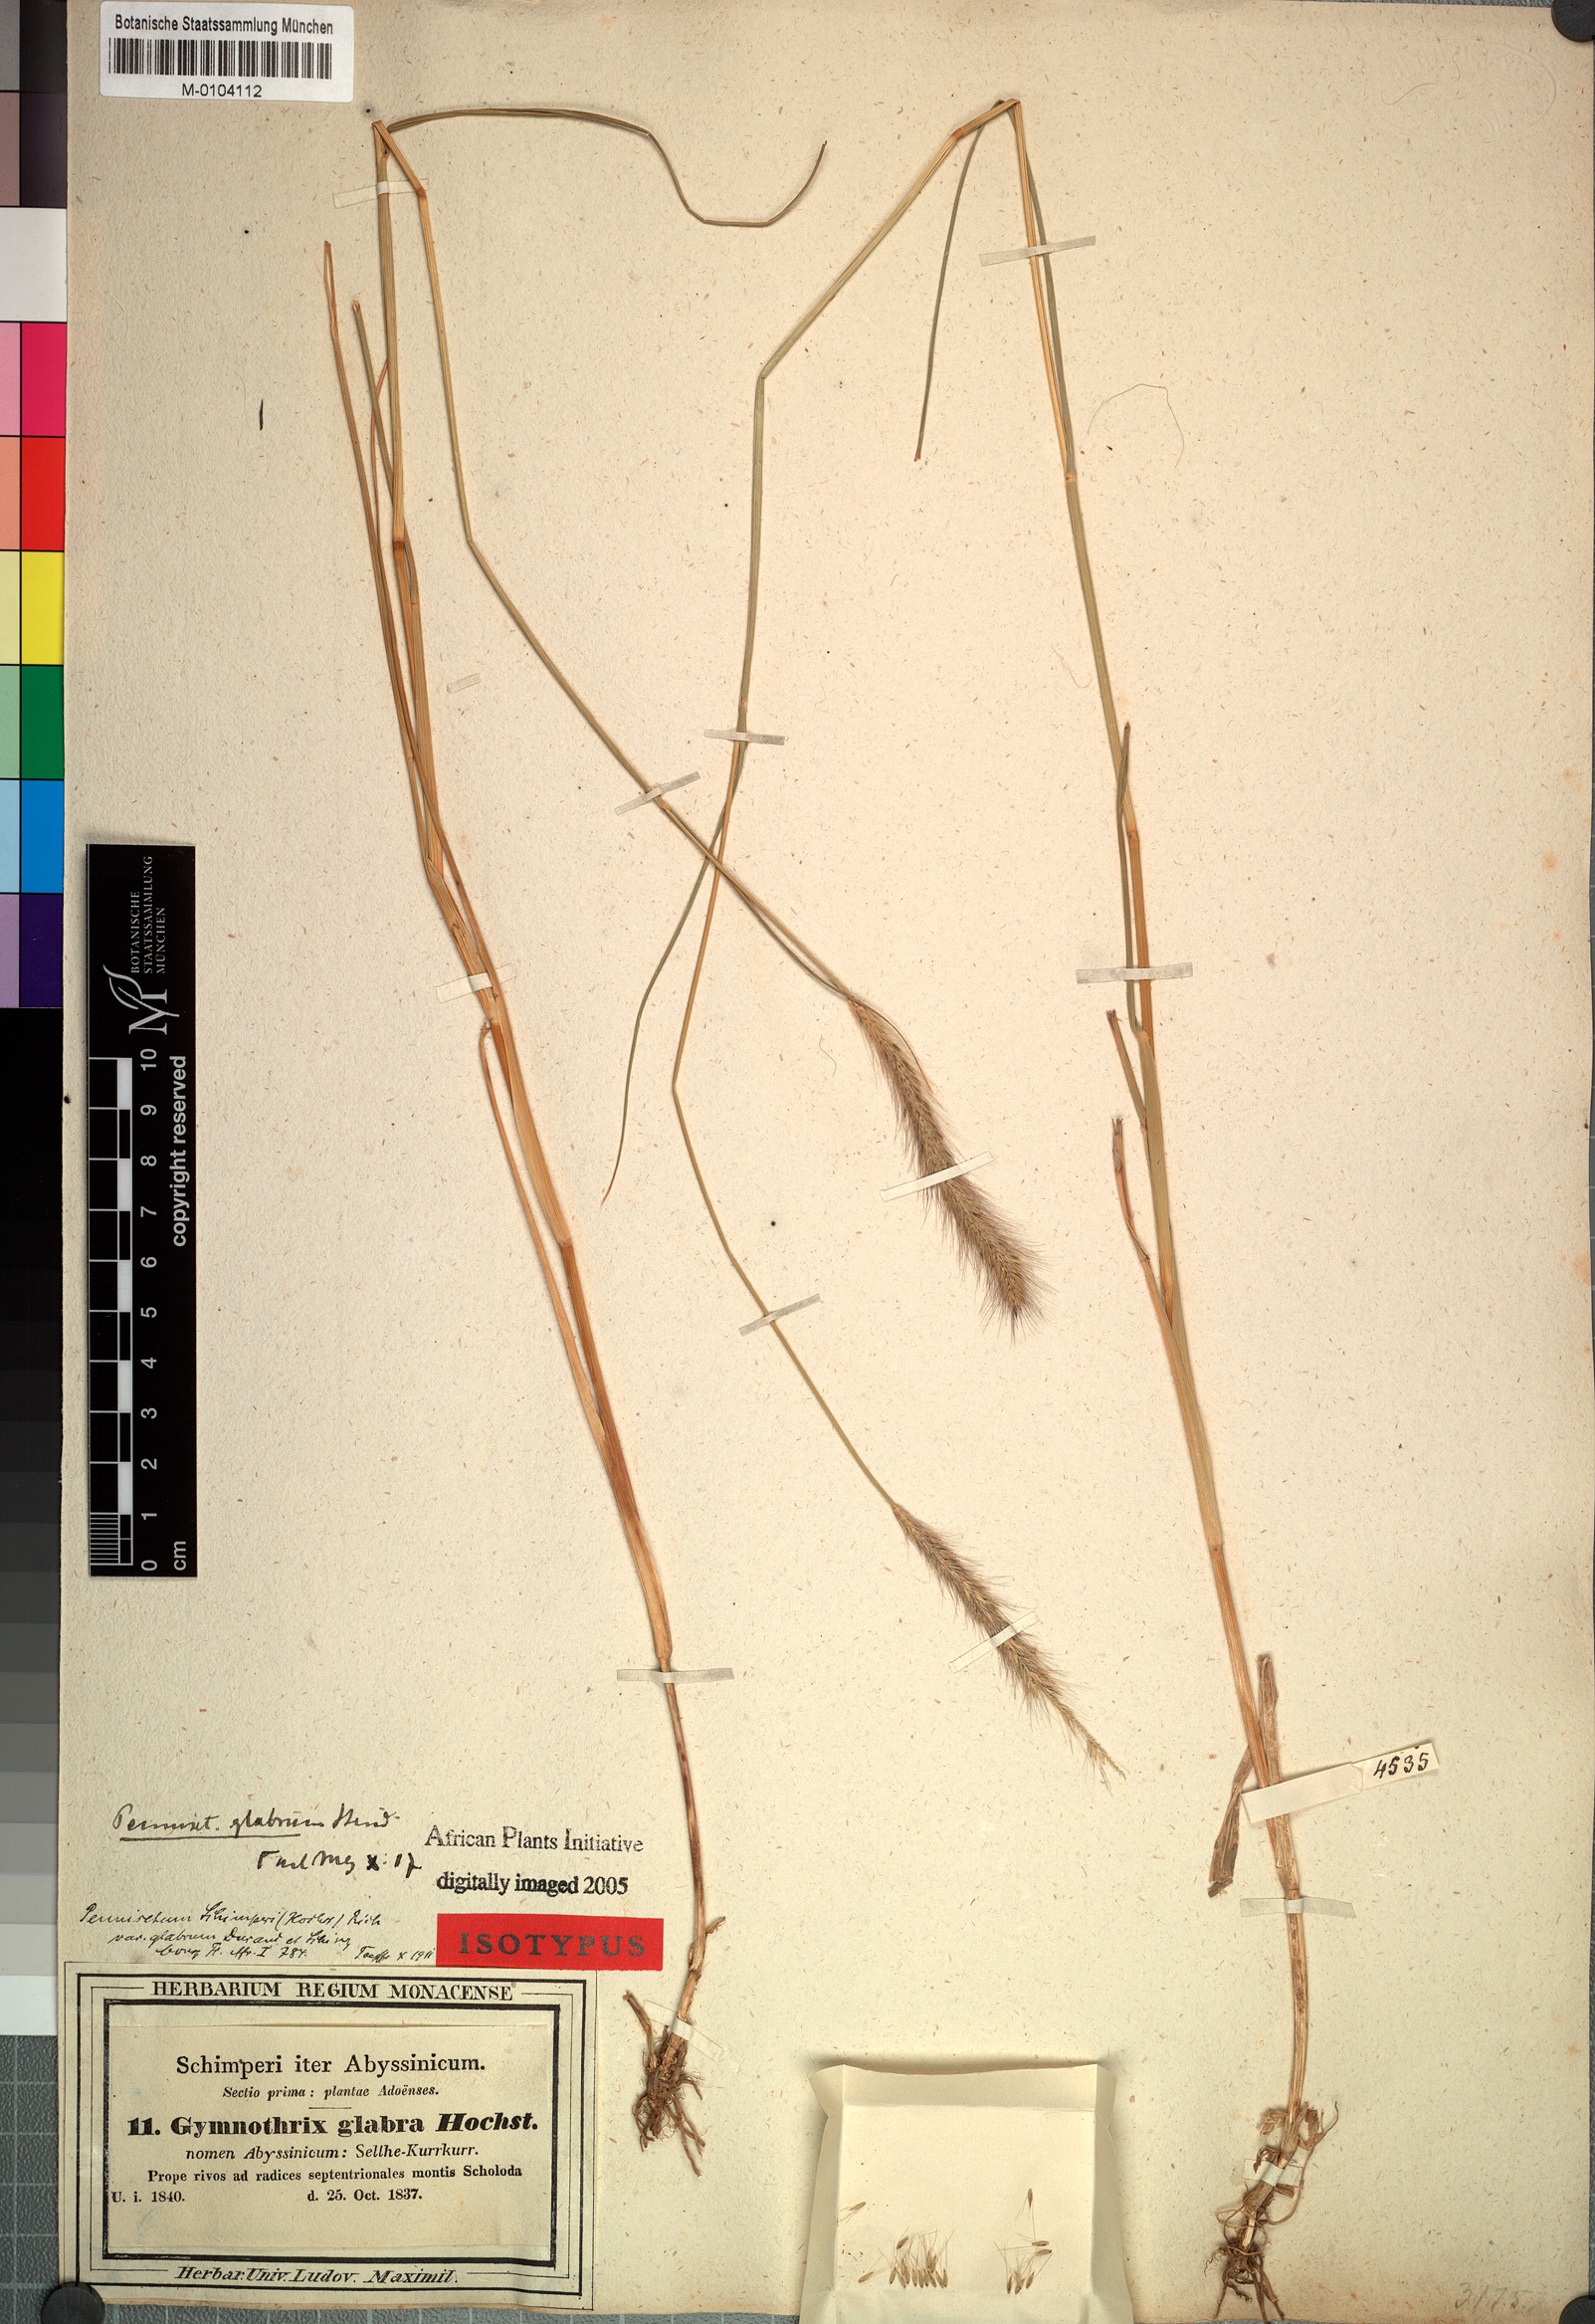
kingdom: Plantae
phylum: Tracheophyta
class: Liliopsida
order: Poales
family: Poaceae
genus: Cenchrus
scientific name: Cenchrus geniculatus
